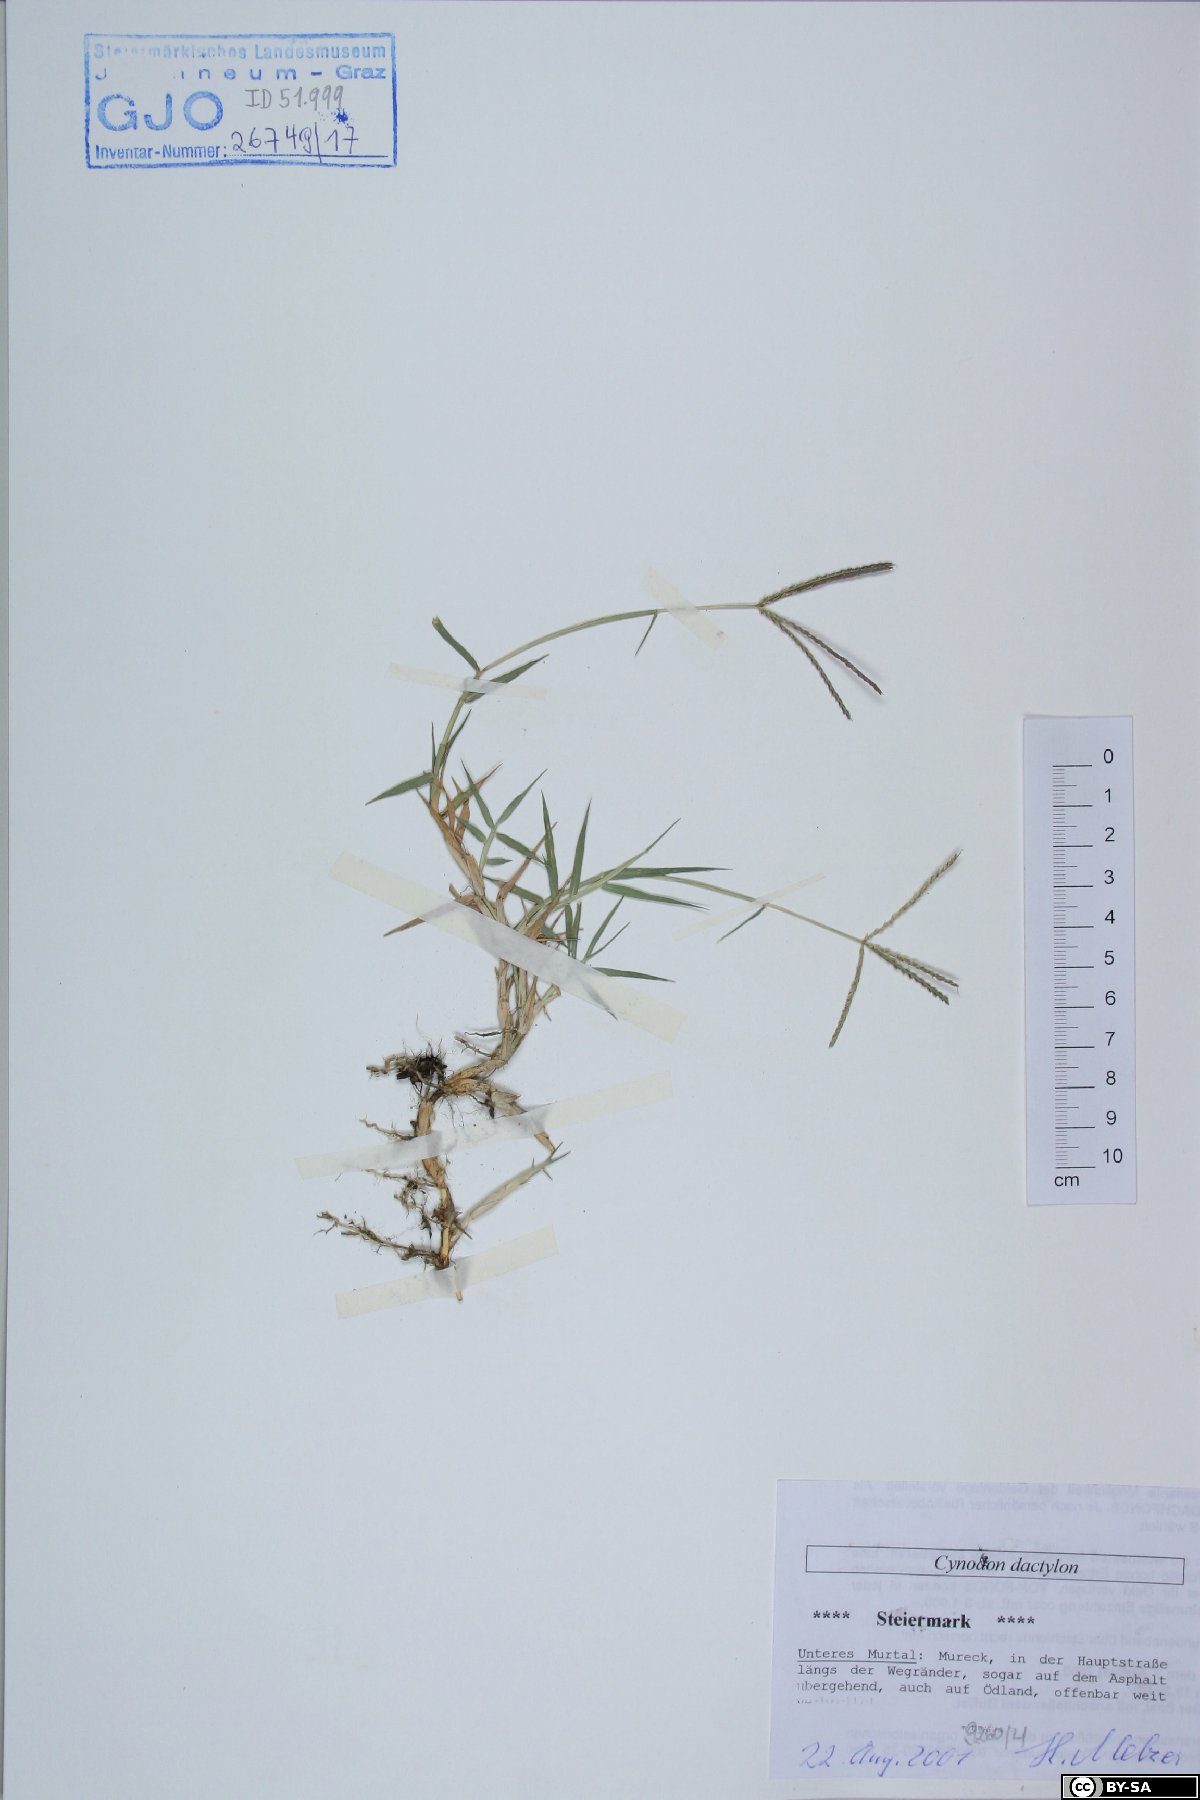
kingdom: Plantae
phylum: Tracheophyta
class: Liliopsida
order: Poales
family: Poaceae
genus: Cynodon
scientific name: Cynodon dactylon
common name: Bermuda grass
